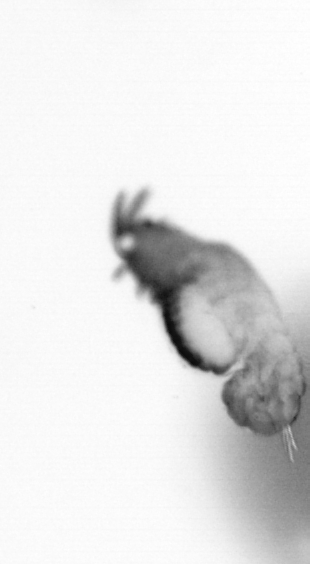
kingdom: Animalia
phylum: Annelida
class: Polychaeta
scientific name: Polychaeta
